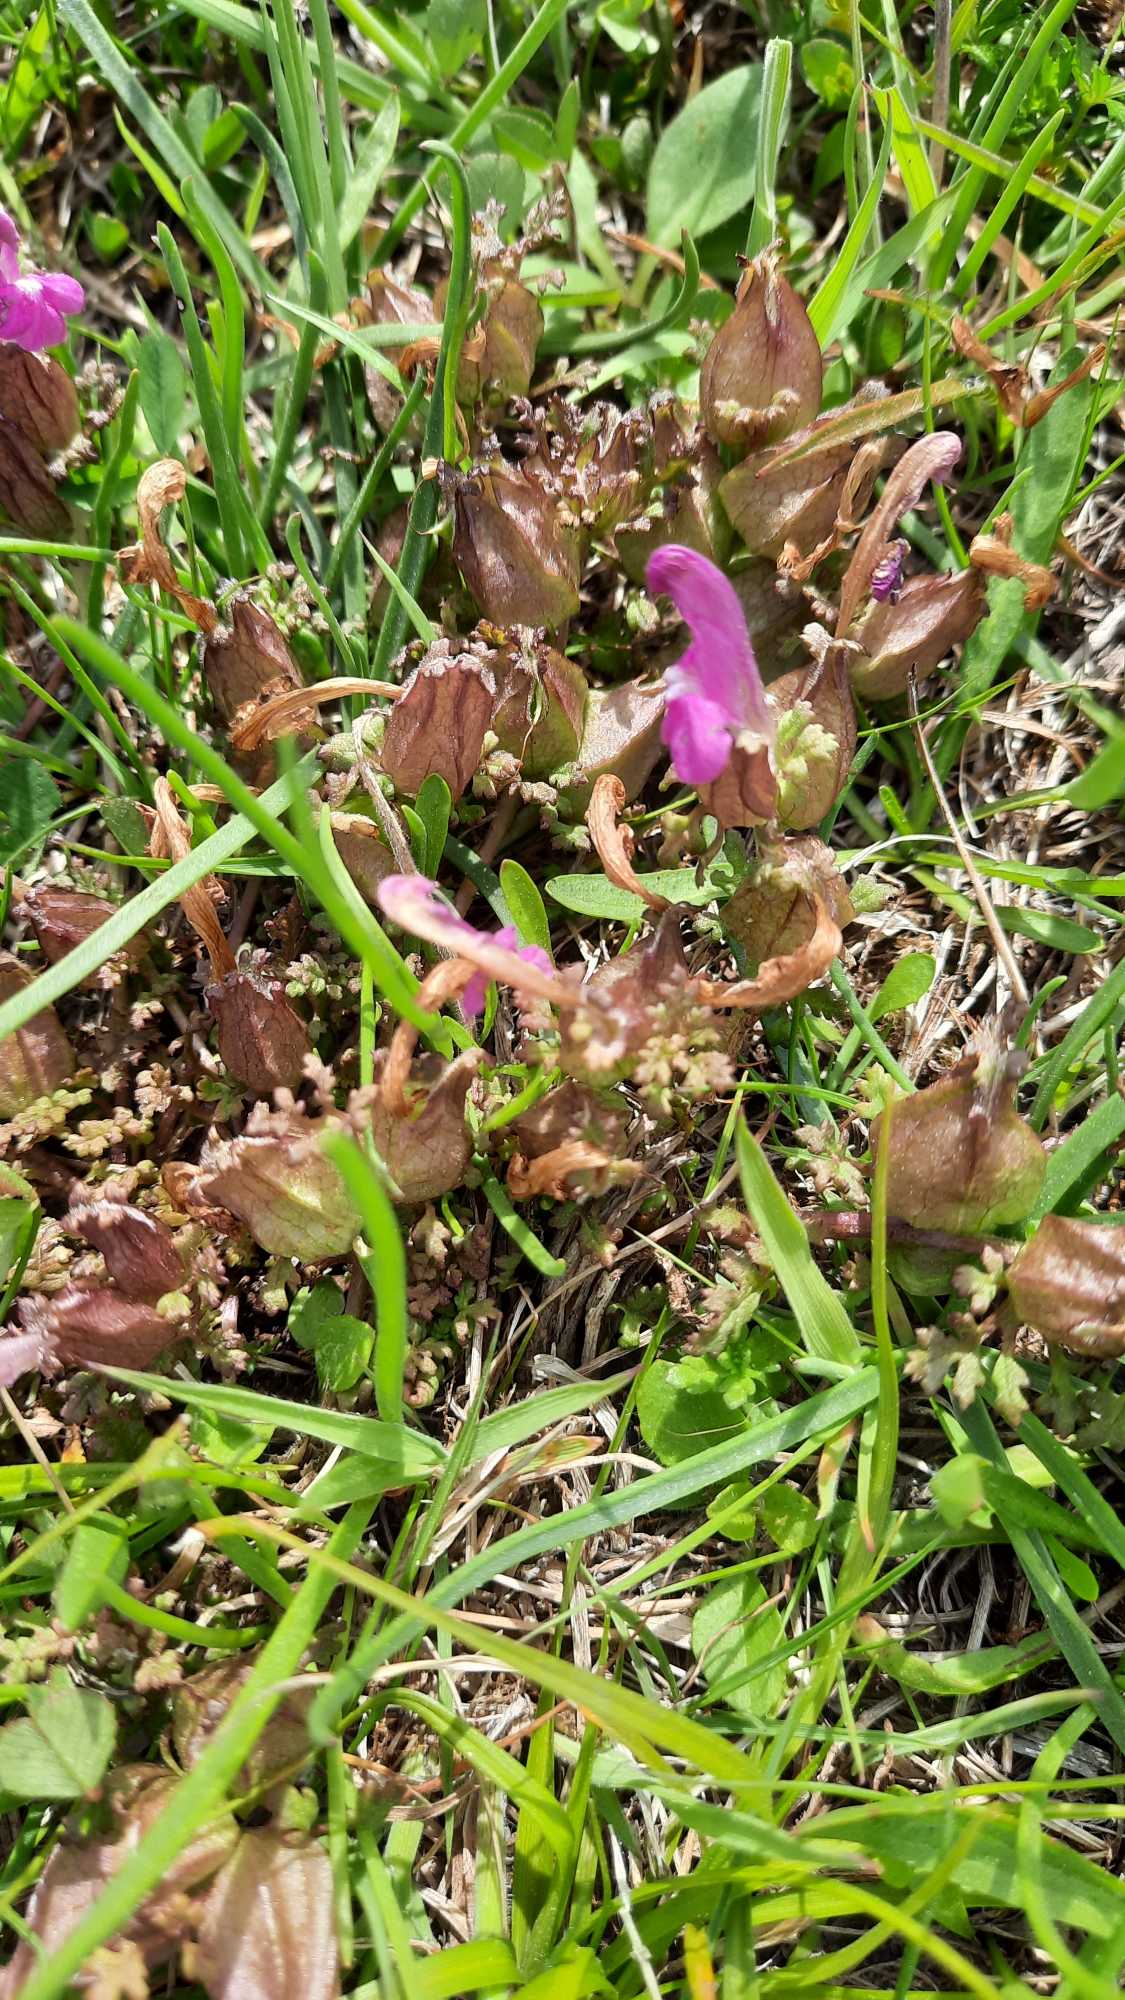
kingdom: Plantae
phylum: Tracheophyta
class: Magnoliopsida
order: Lamiales
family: Orobanchaceae
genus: Pedicularis
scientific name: Pedicularis sylvatica
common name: Mose-troldurt
